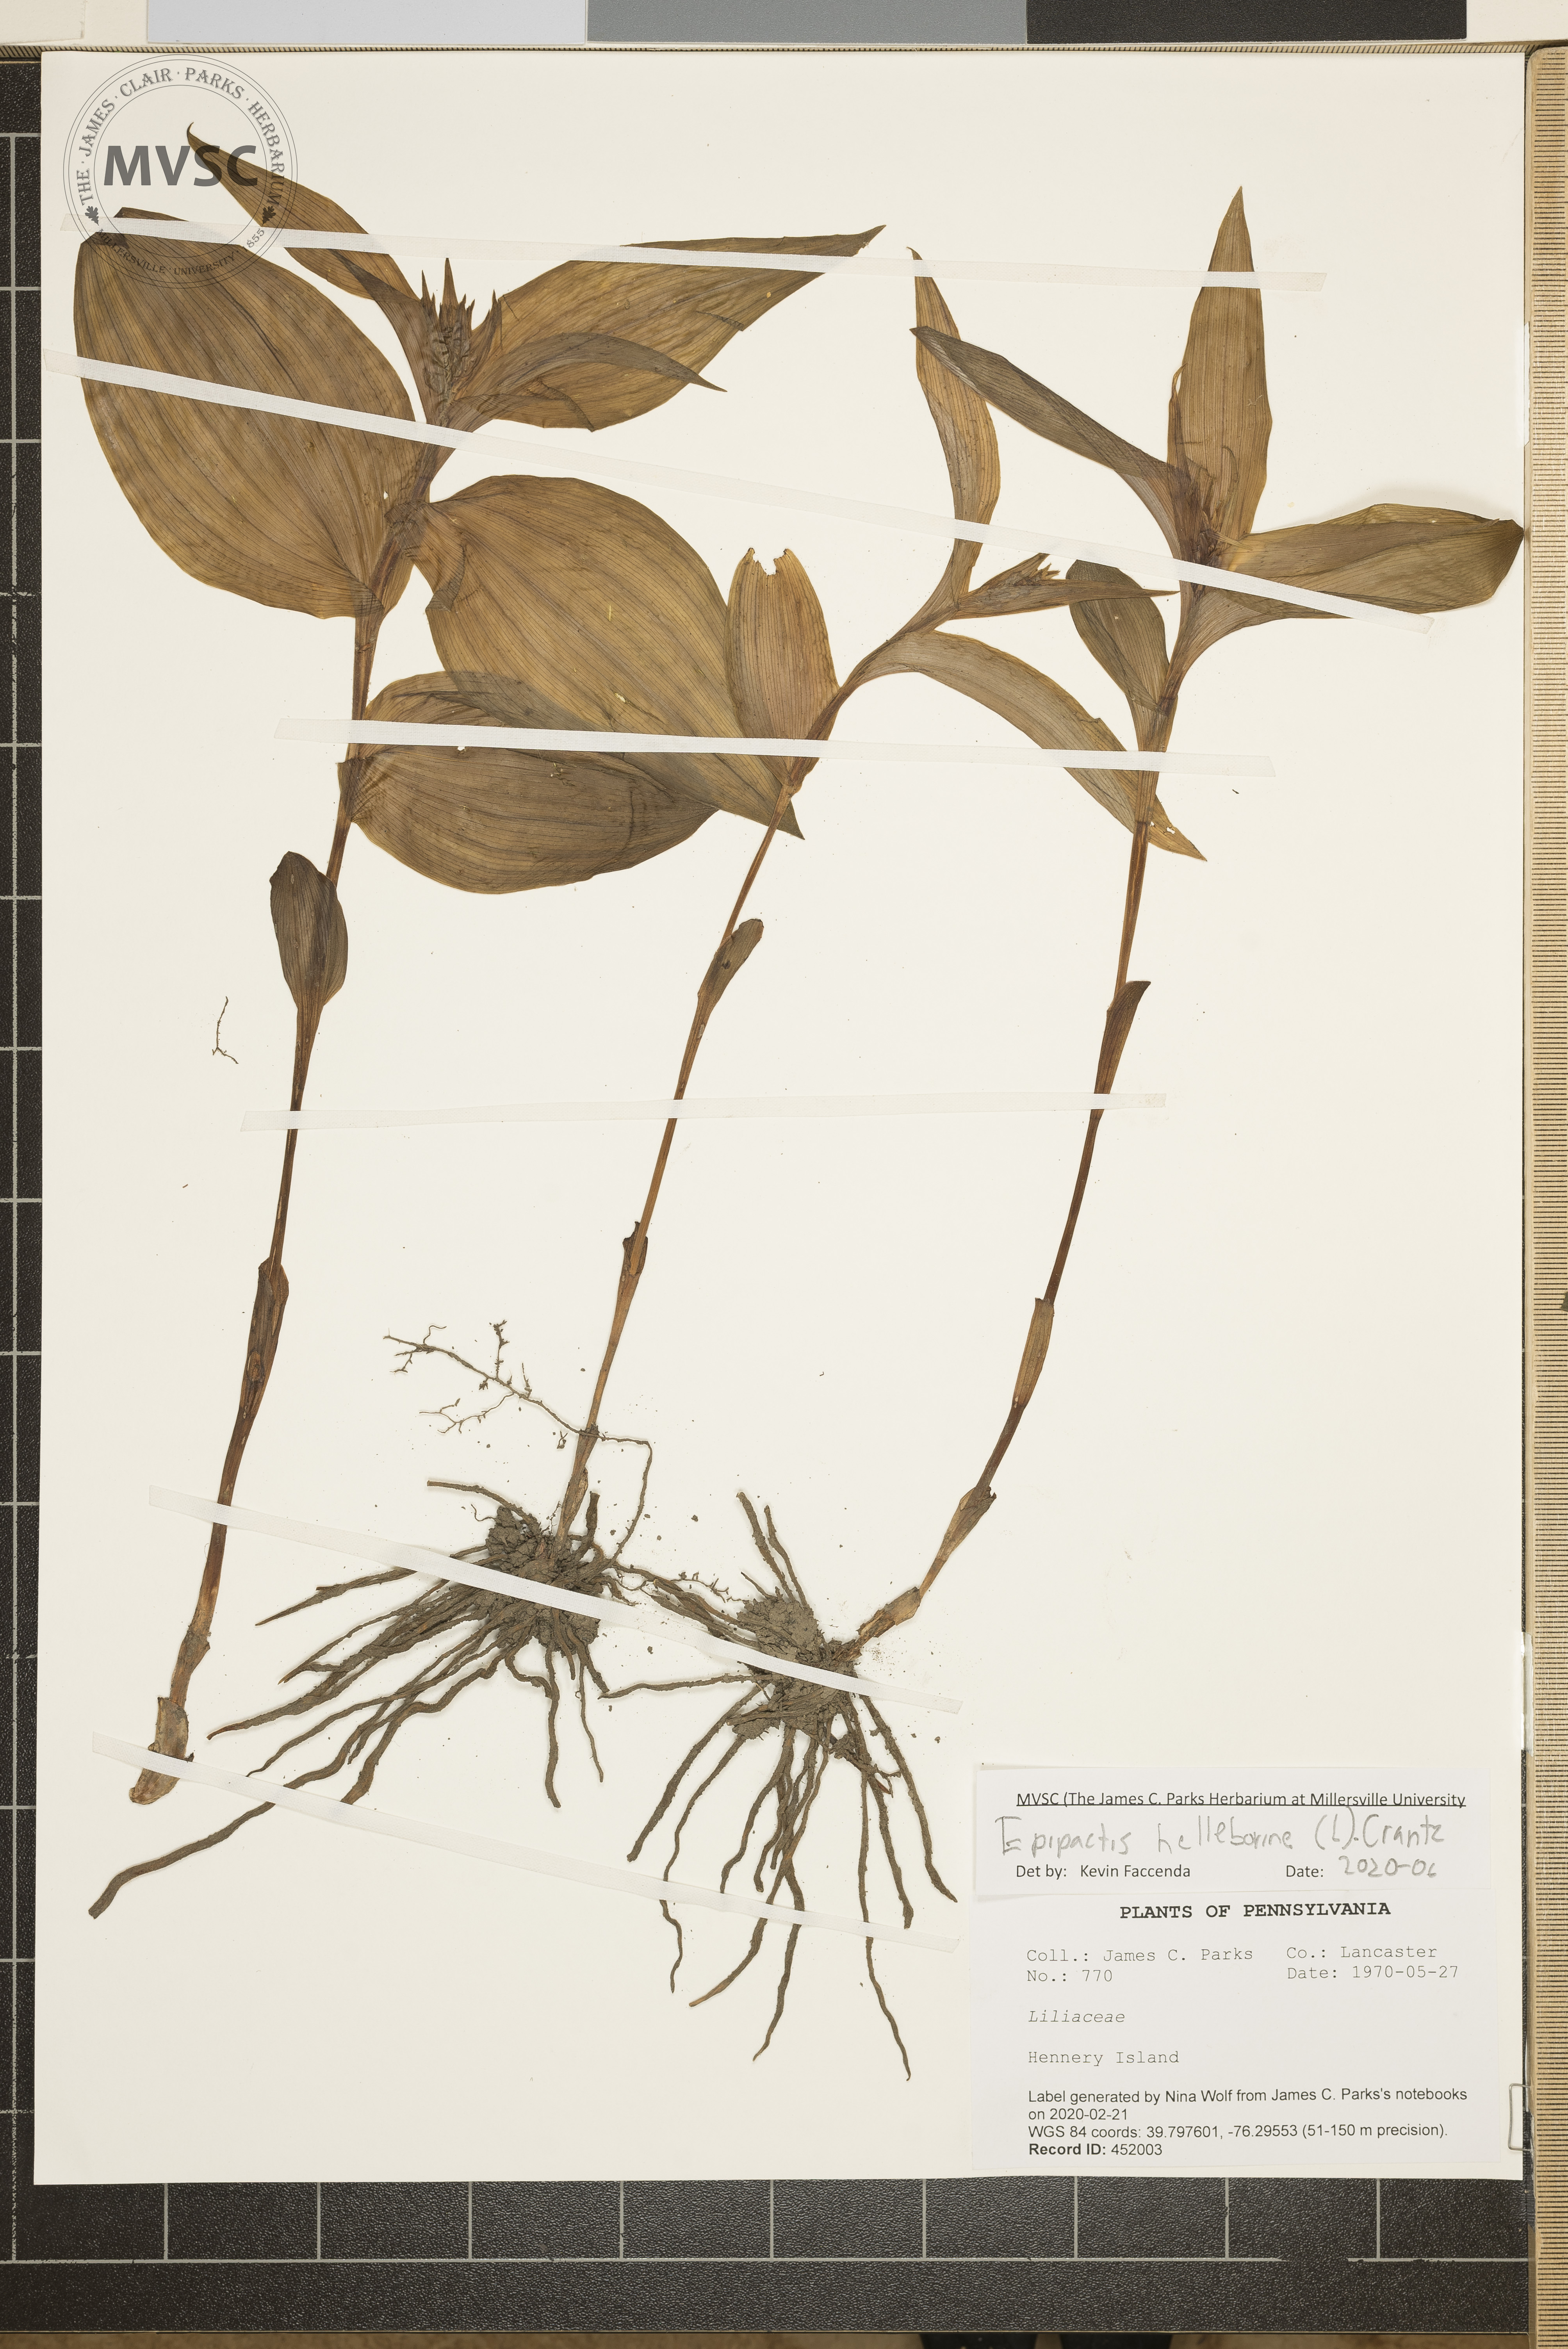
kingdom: Plantae
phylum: Tracheophyta
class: Liliopsida
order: Asparagales
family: Orchidaceae
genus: Epipactis
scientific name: Epipactis helleborine
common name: Broad-leaved helleborine
